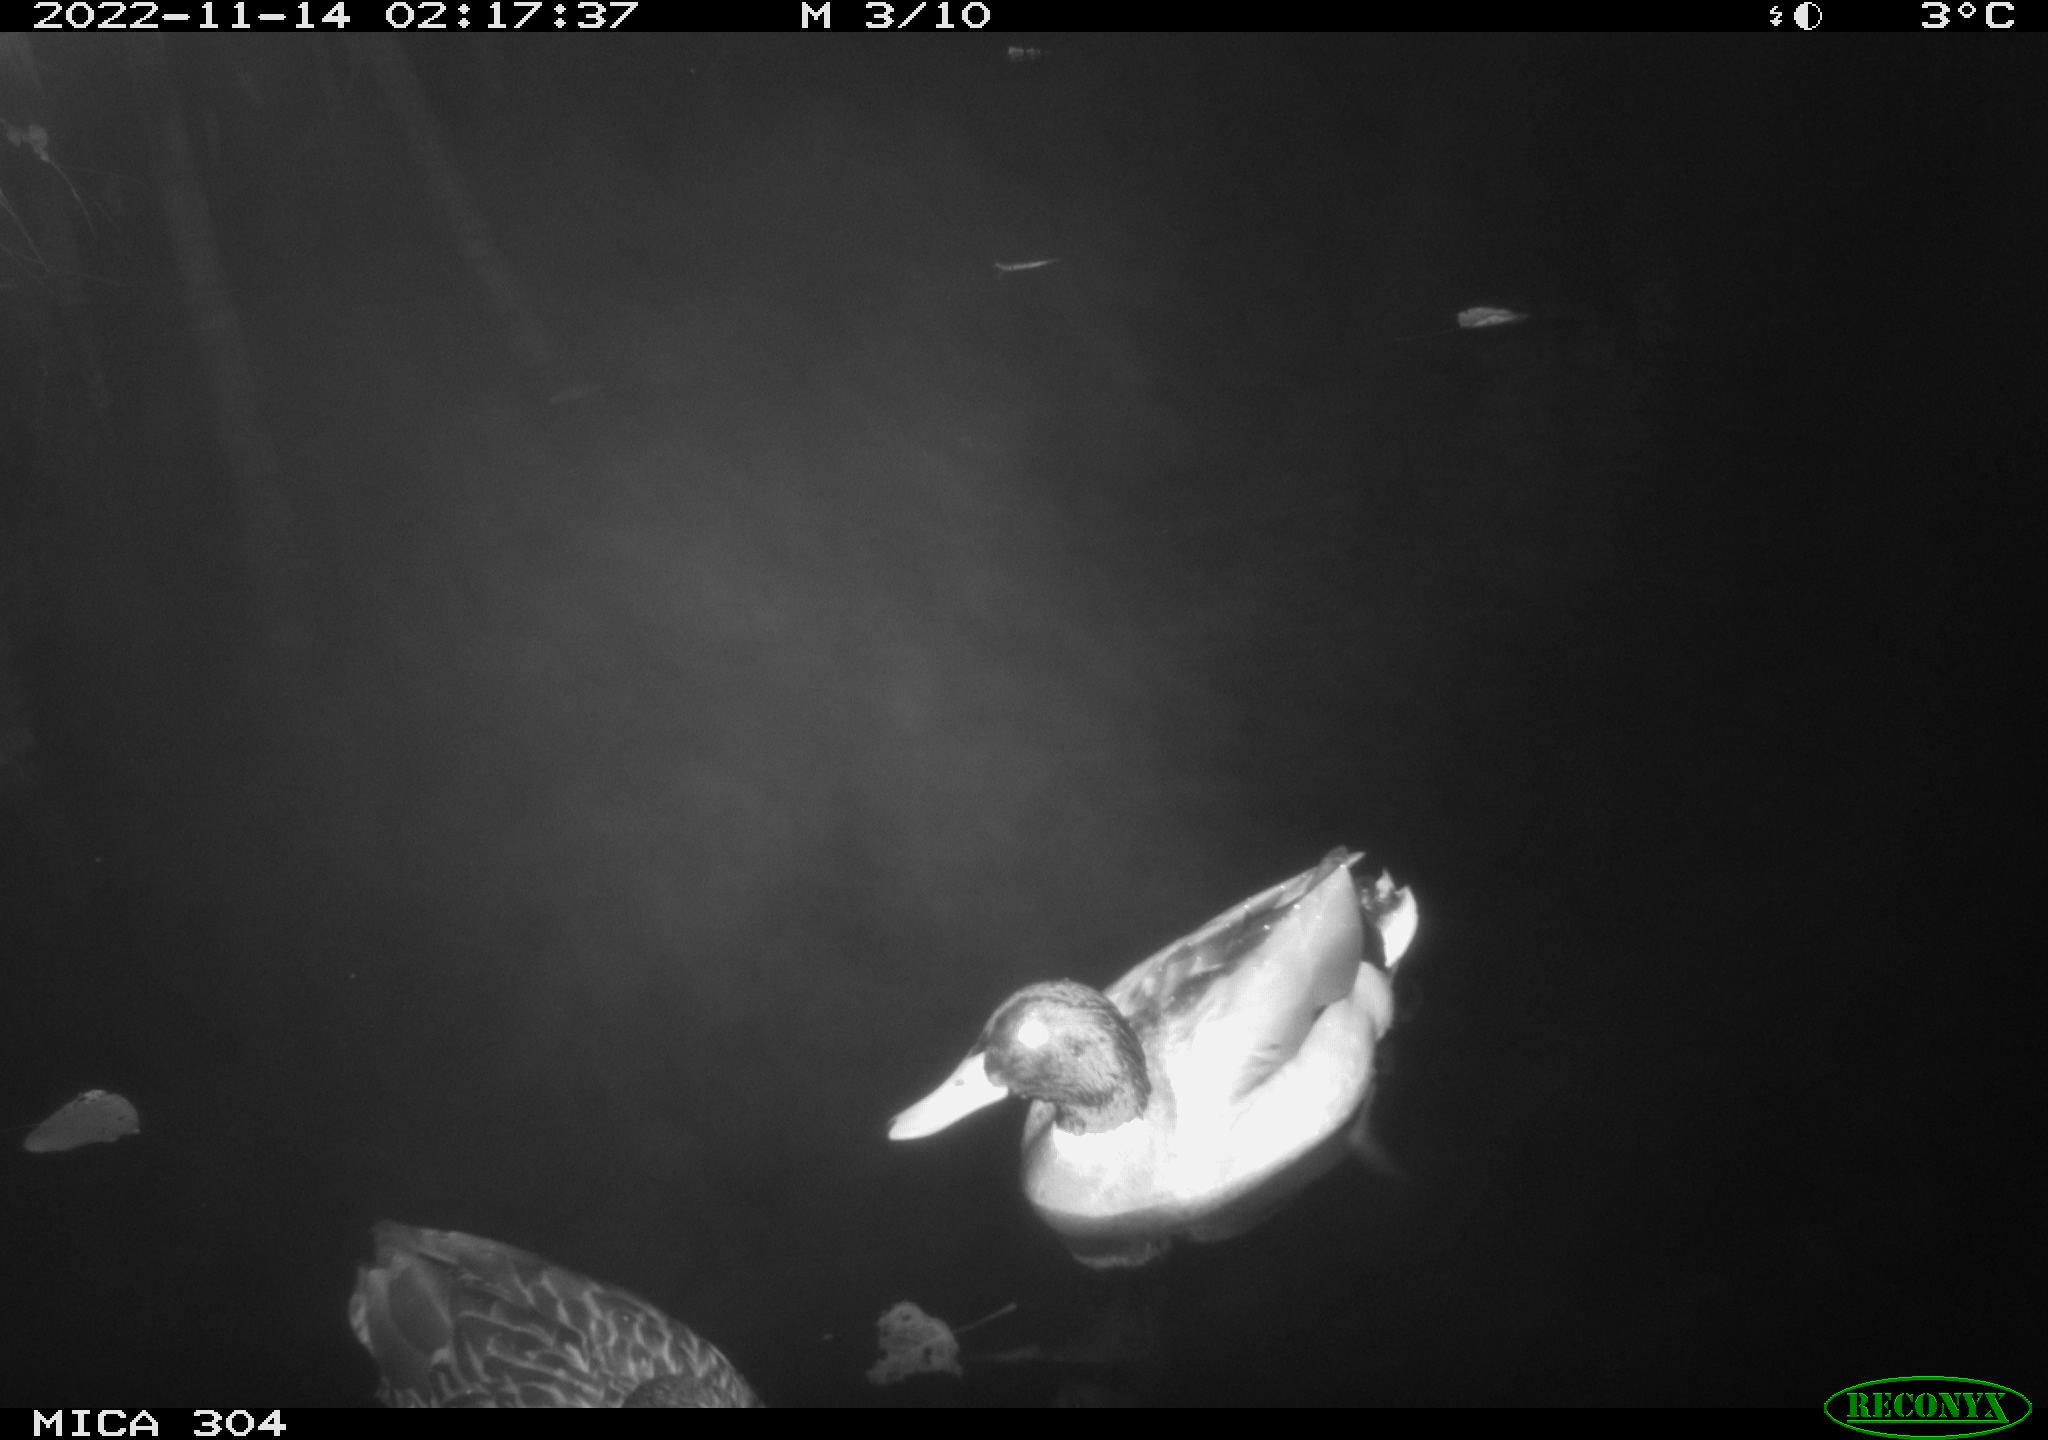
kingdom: Animalia
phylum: Chordata
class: Aves
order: Anseriformes
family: Anatidae
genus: Anas
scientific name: Anas
